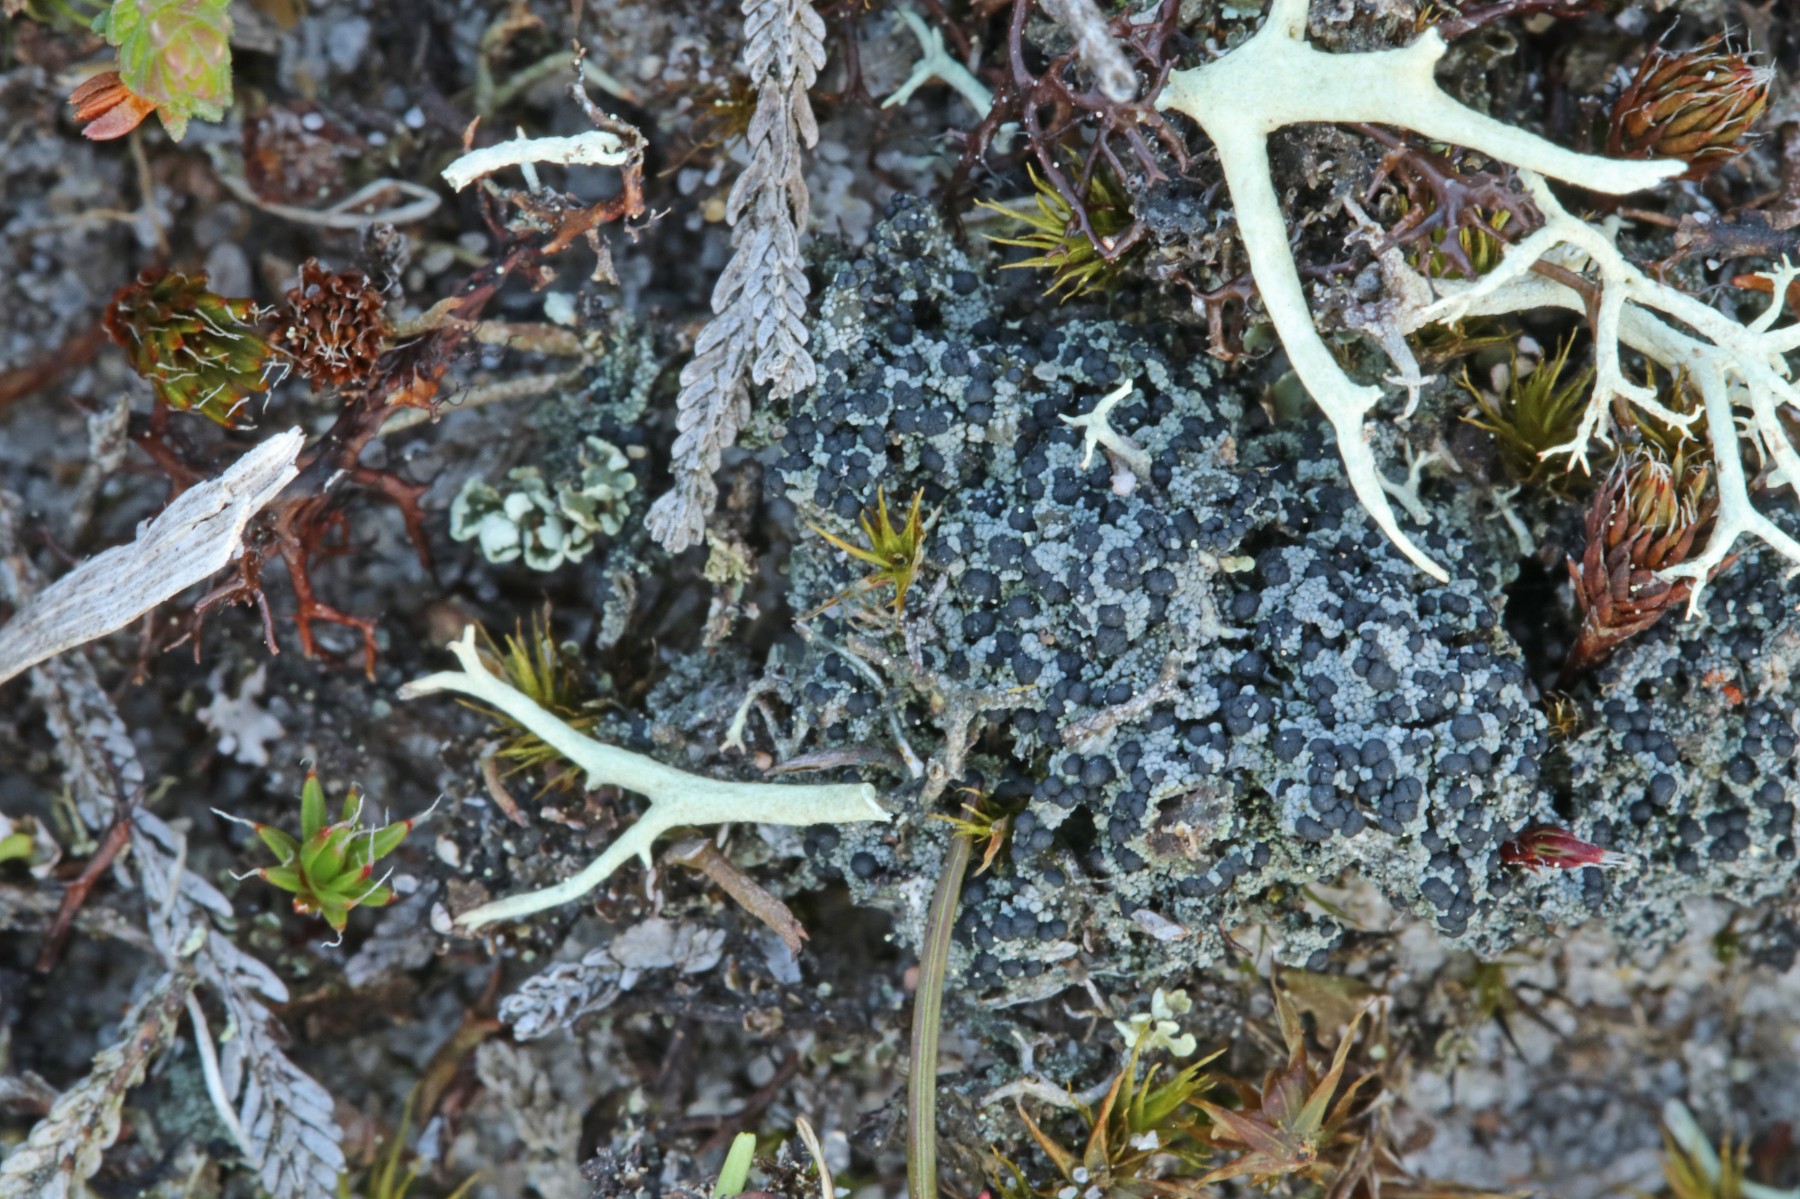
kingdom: Fungi
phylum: Ascomycota
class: Lecanoromycetes
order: Lecanorales
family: Byssolomataceae
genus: Micarea
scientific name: Micarea lignaria
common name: tørve-knaplav
